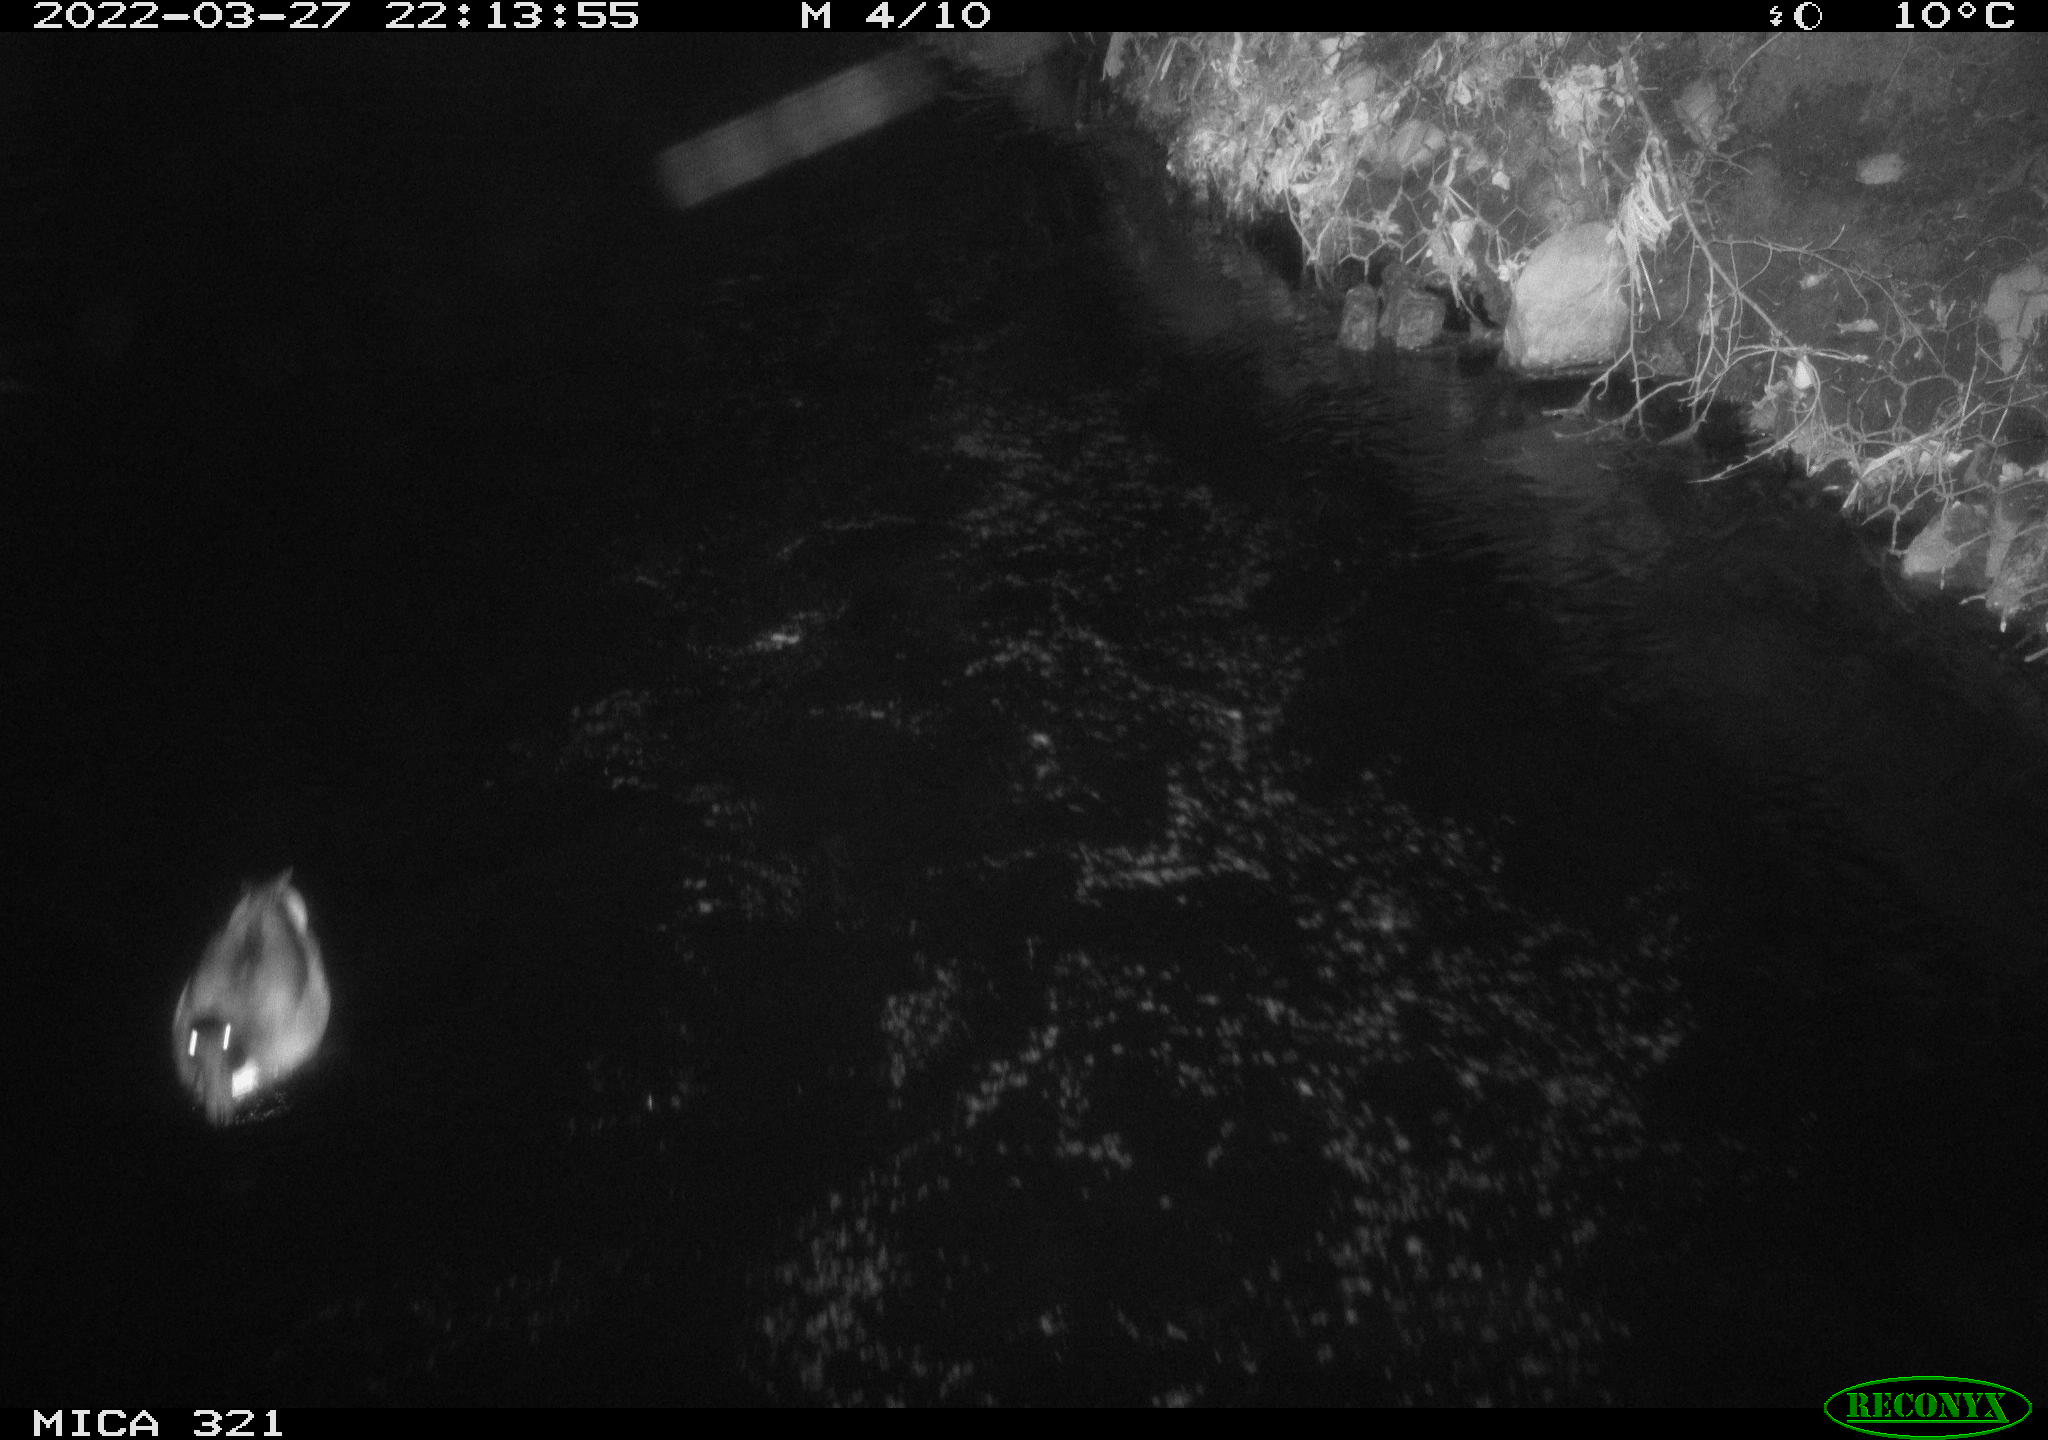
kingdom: Animalia
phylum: Chordata
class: Aves
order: Anseriformes
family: Anatidae
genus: Anas
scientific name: Anas platyrhynchos
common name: Mallard
